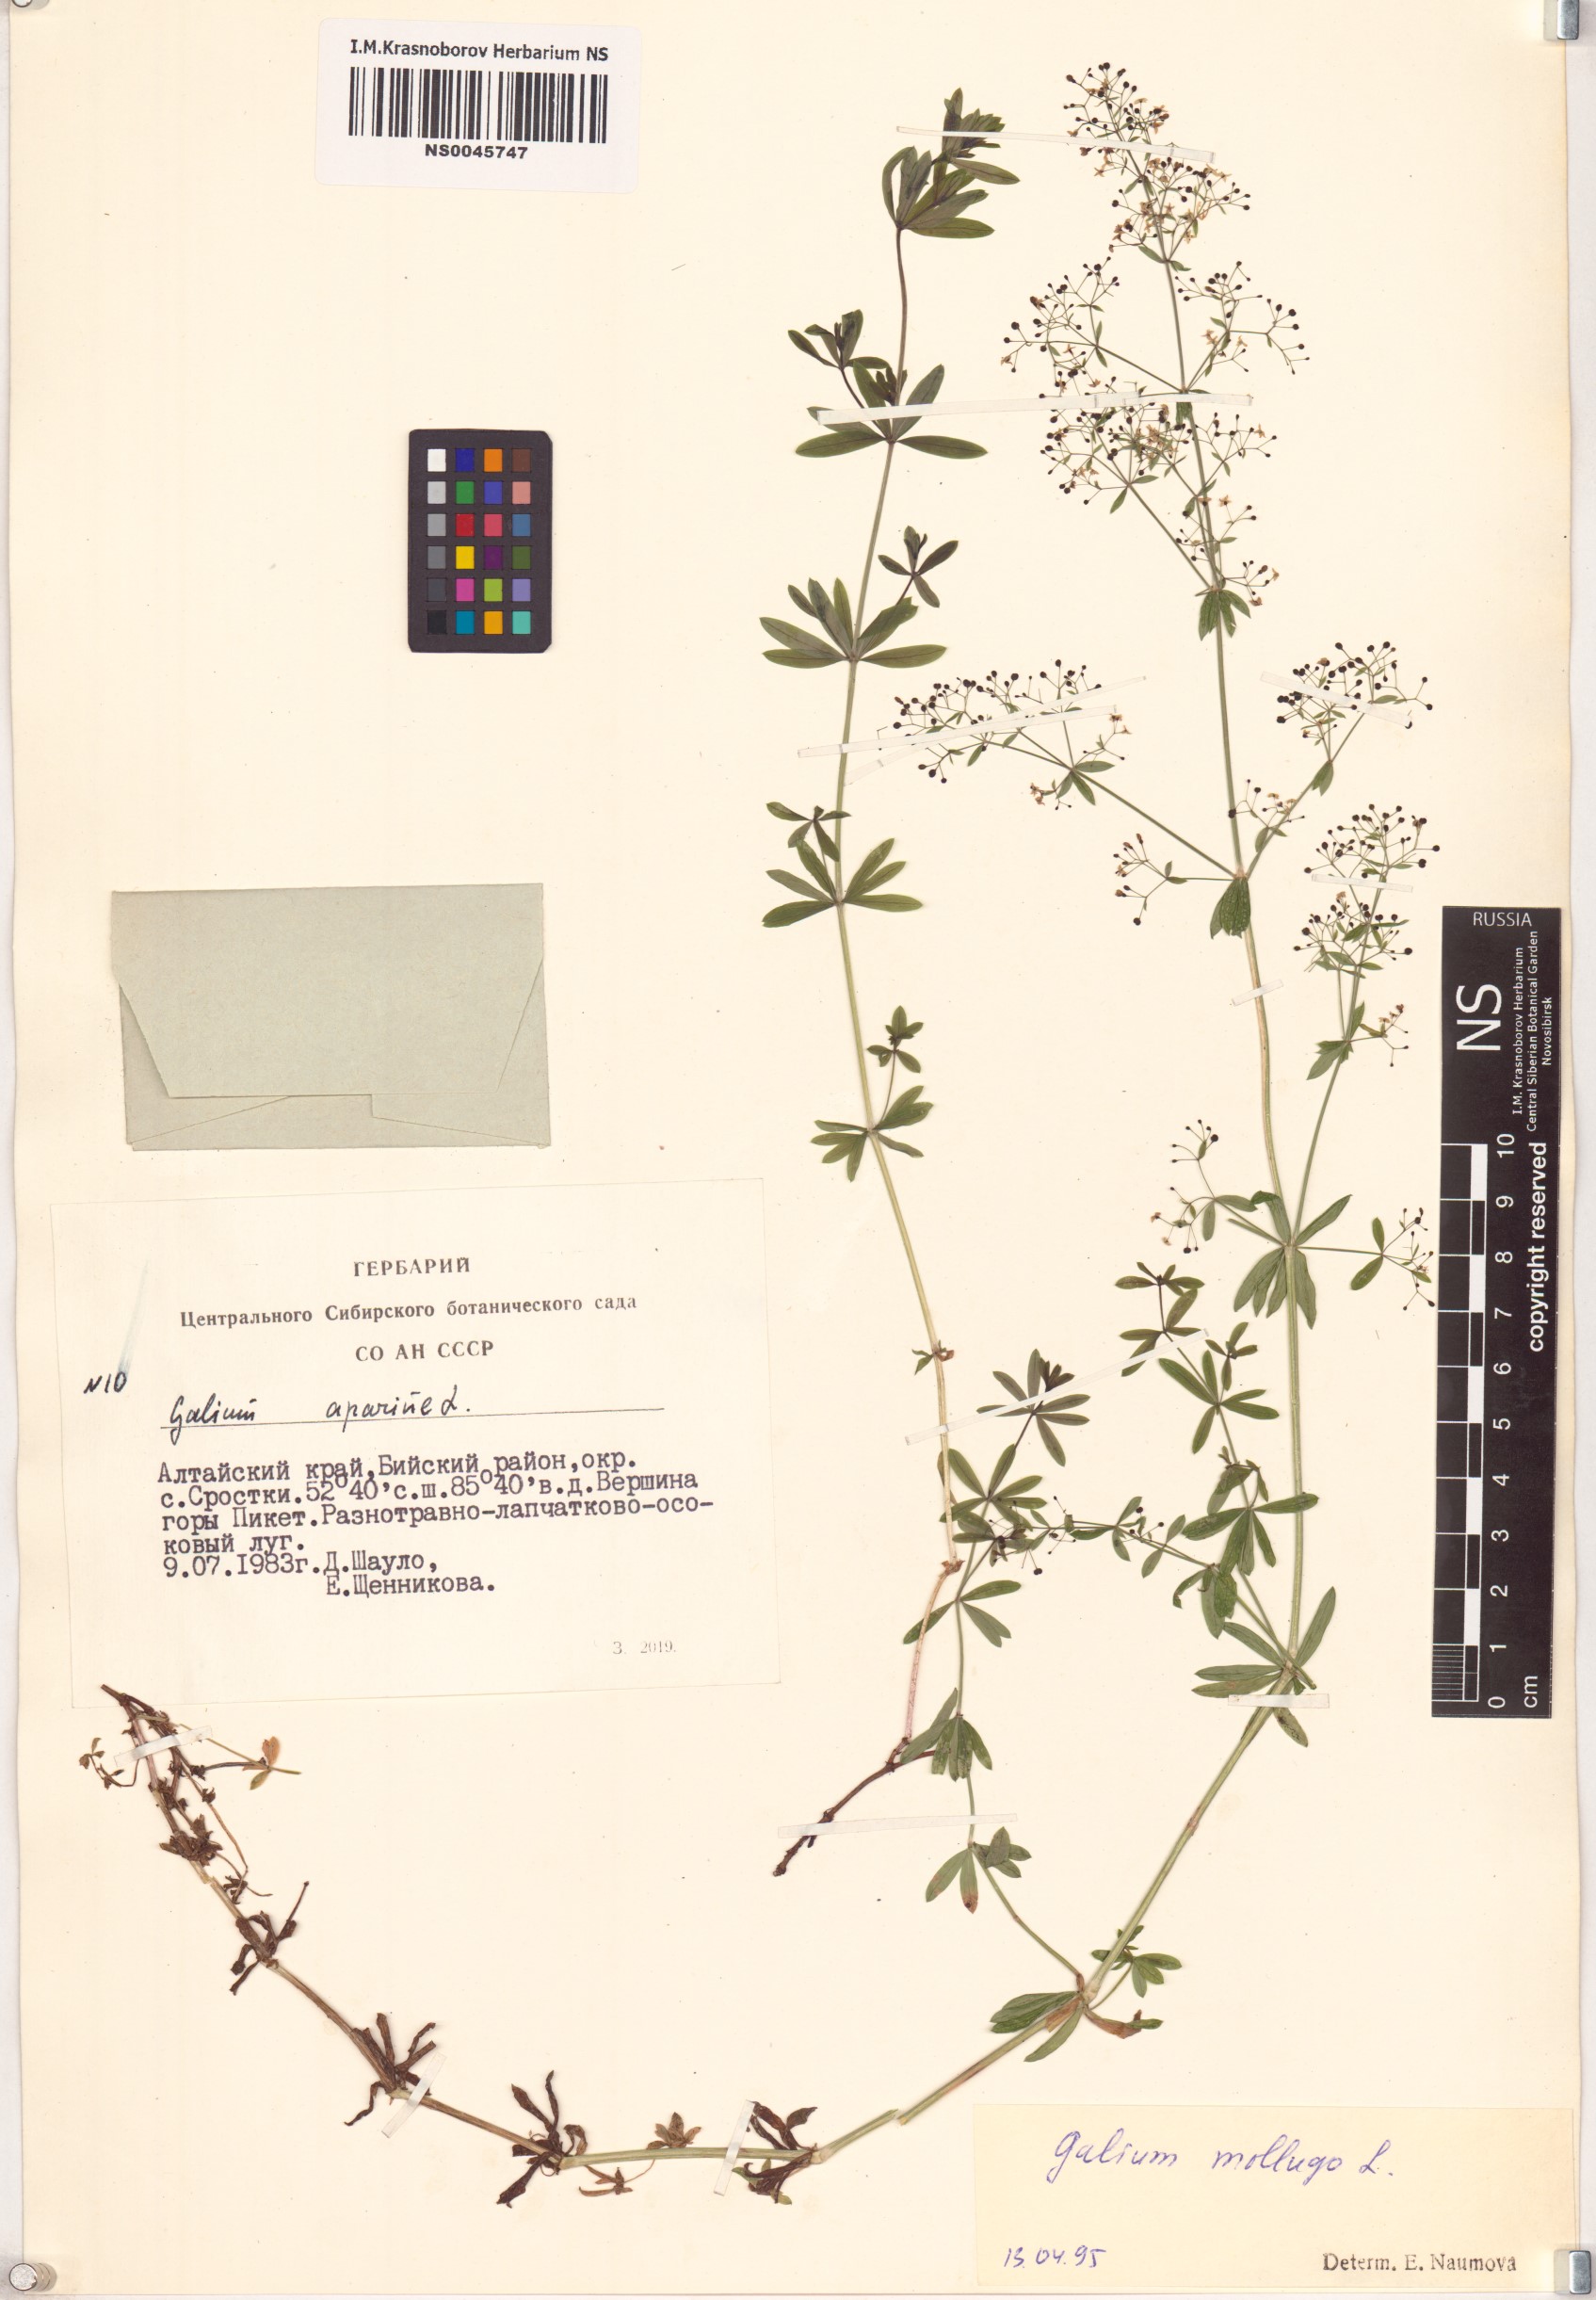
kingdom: Plantae
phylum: Tracheophyta
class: Magnoliopsida
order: Gentianales
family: Rubiaceae
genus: Galium
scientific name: Galium mollugo
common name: Hedge bedstraw
